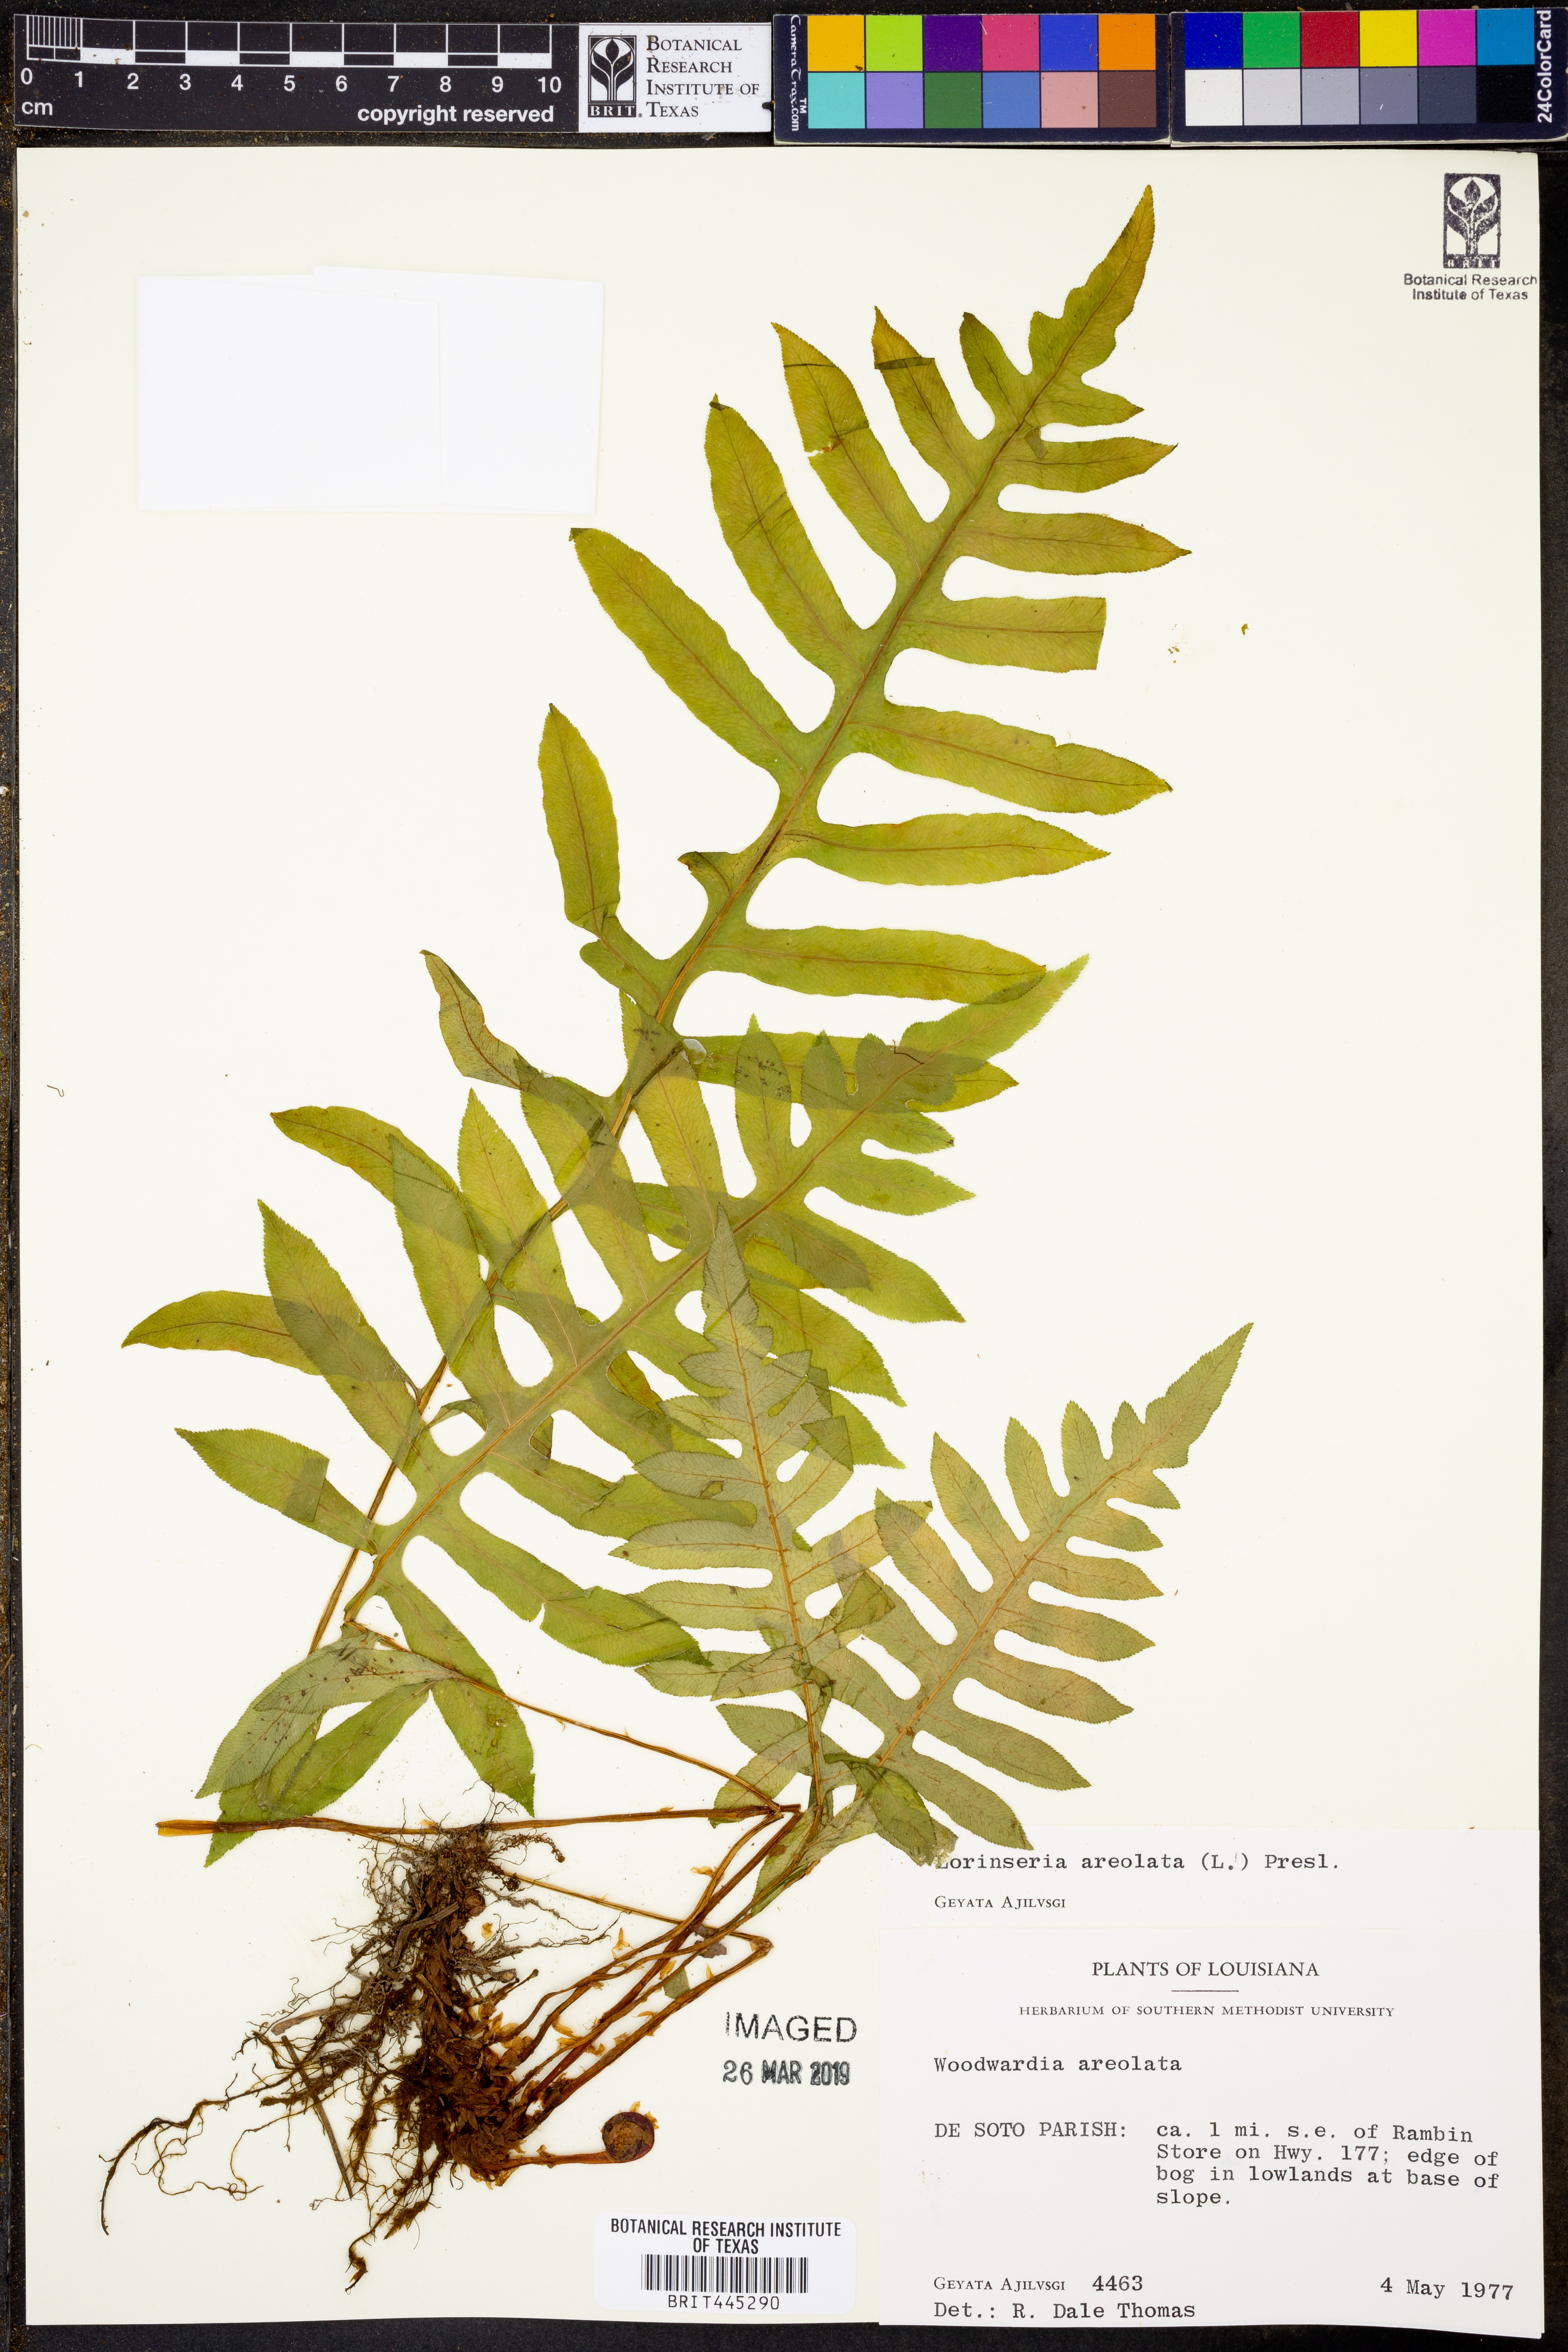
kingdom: Plantae
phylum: Tracheophyta
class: Polypodiopsida
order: Polypodiales
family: Blechnaceae
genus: Lorinseria
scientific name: Lorinseria areolata
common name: Dwarf chain fern
